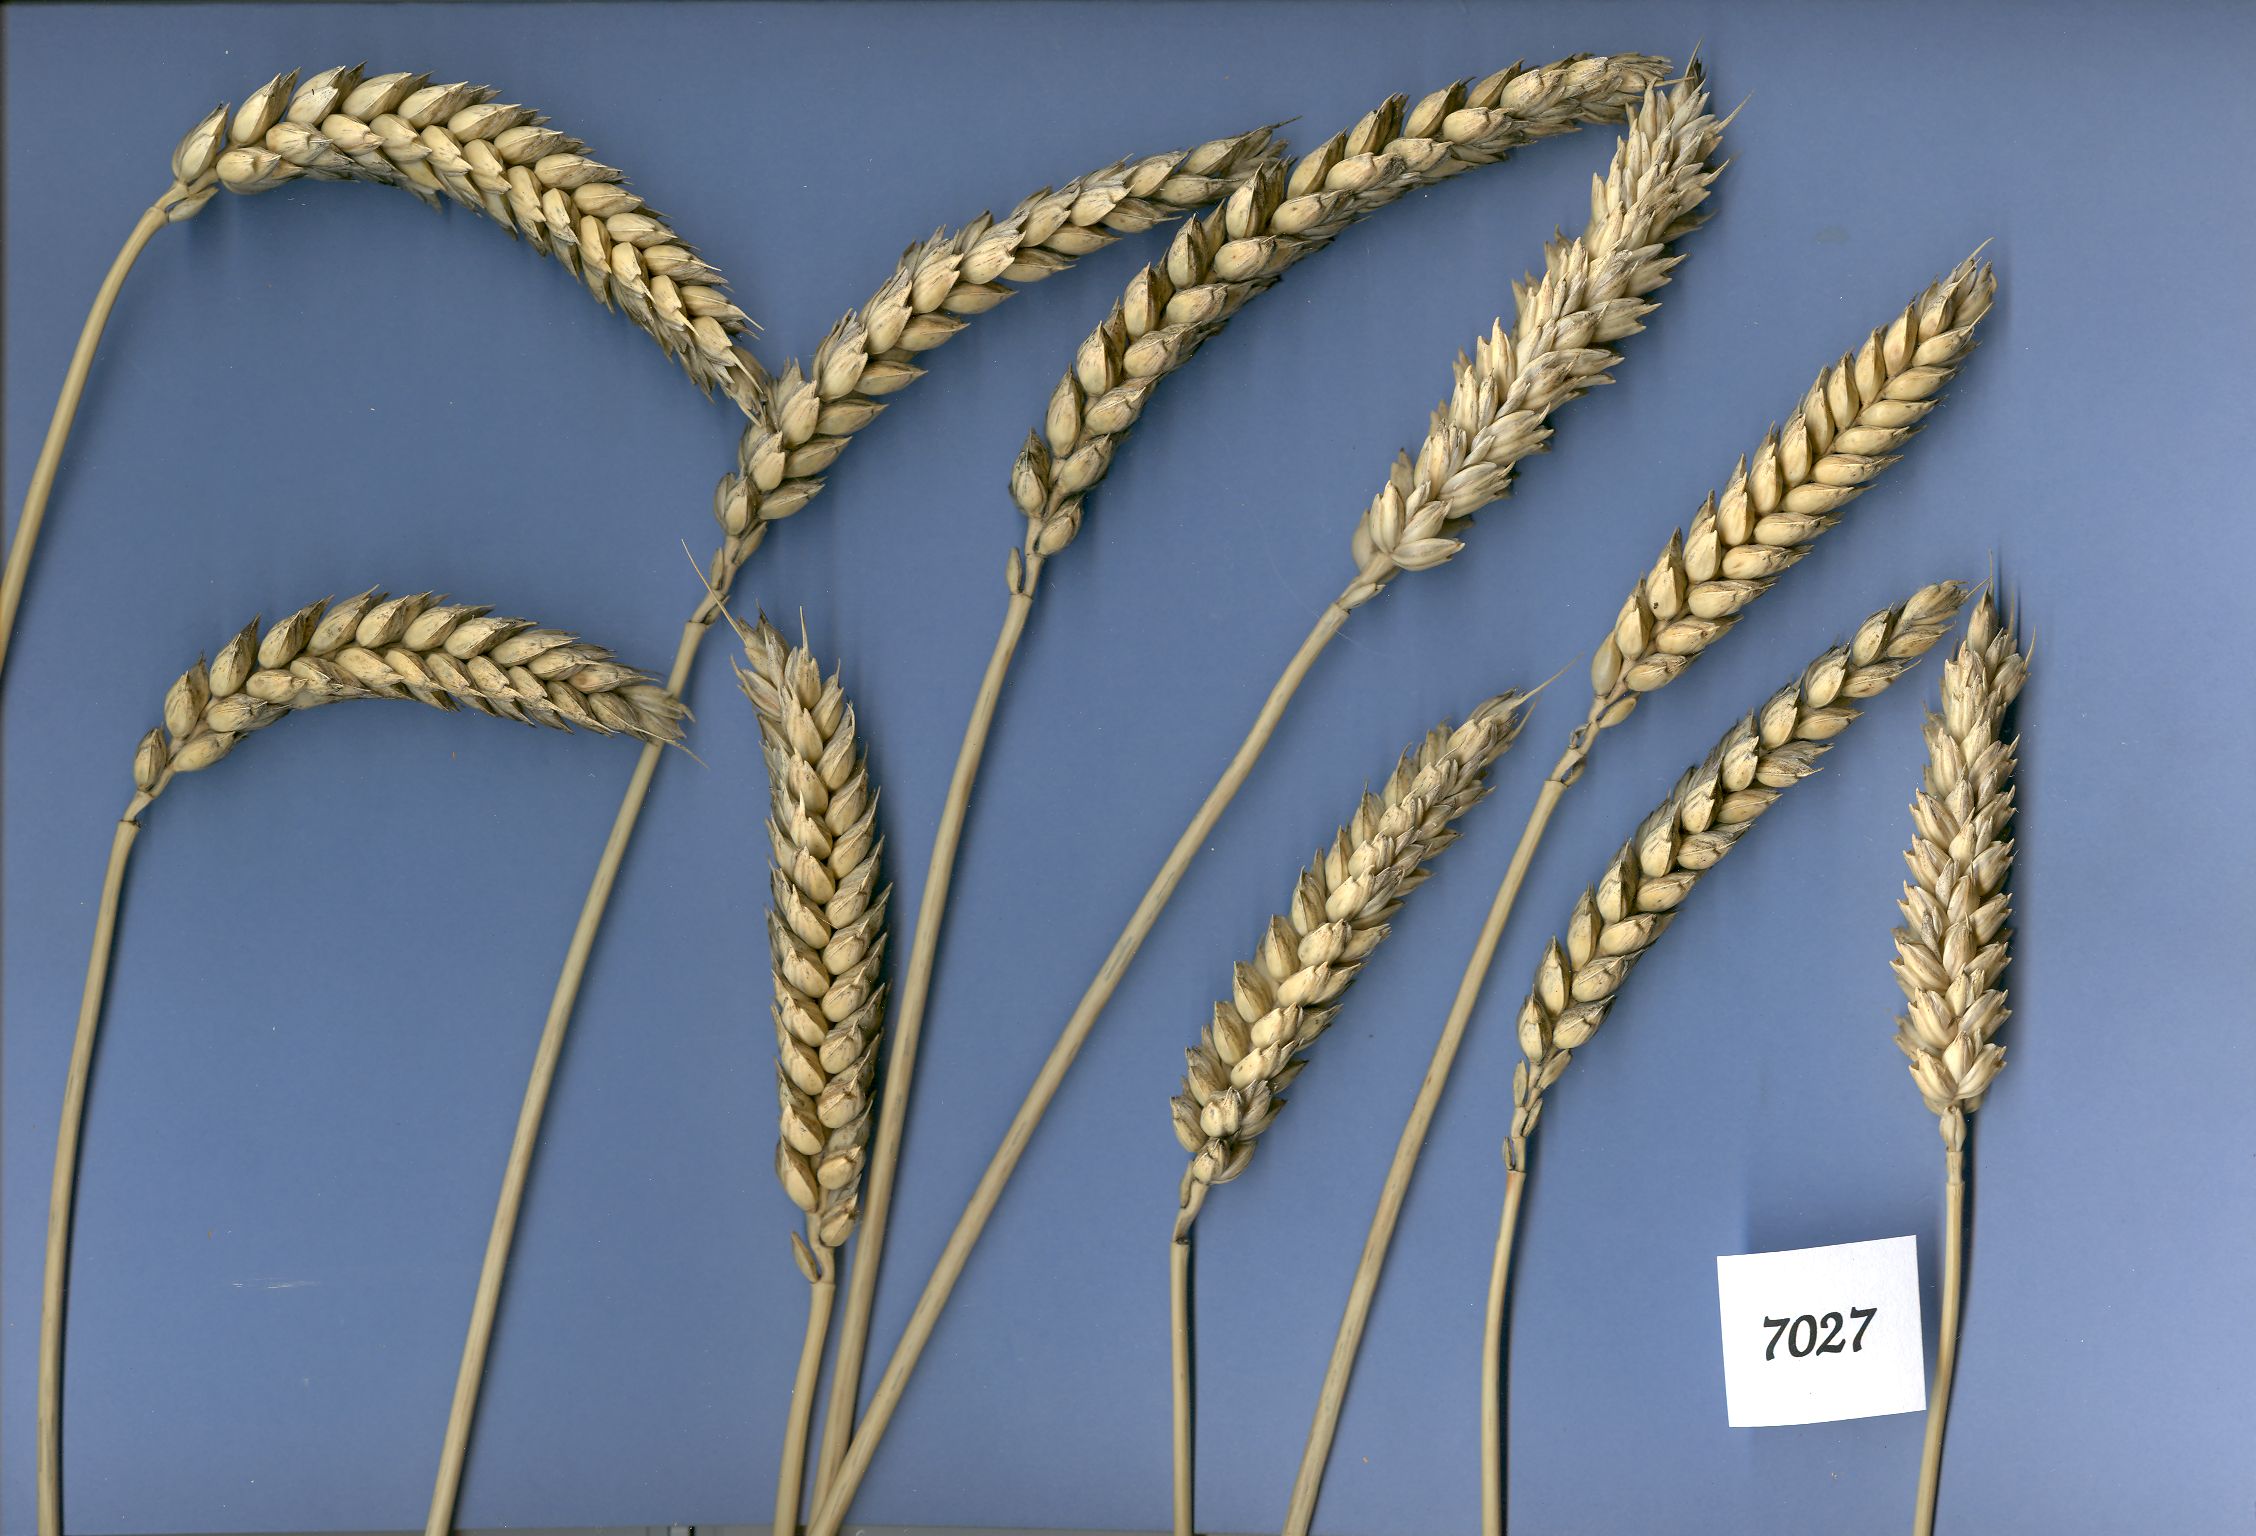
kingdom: Plantae
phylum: Tracheophyta
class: Liliopsida
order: Poales
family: Poaceae
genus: Triticum
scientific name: Triticum aestivum
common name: Common wheat
